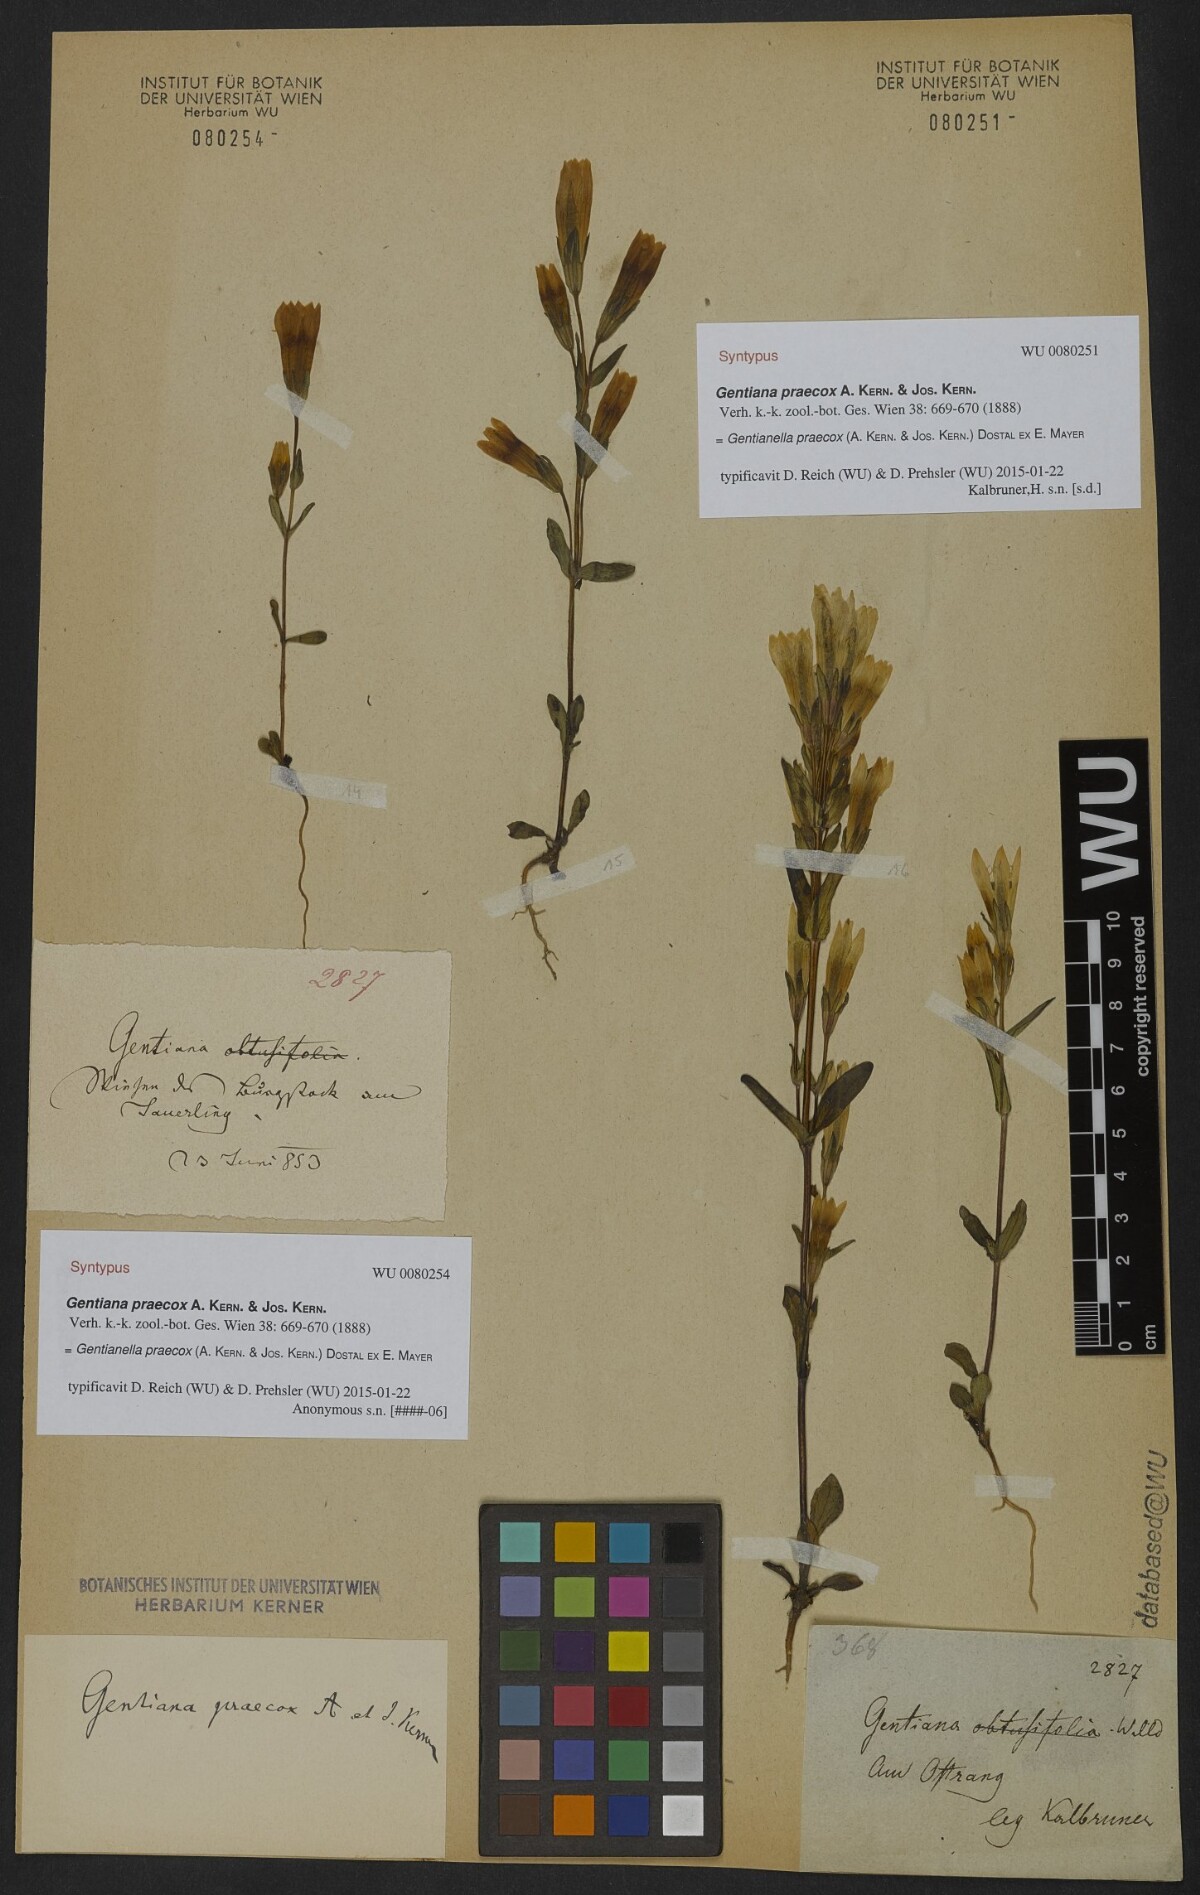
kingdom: Plantae
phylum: Tracheophyta
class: Magnoliopsida
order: Gentianales
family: Gentianaceae
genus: Gentianella
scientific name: Gentianella praecox
